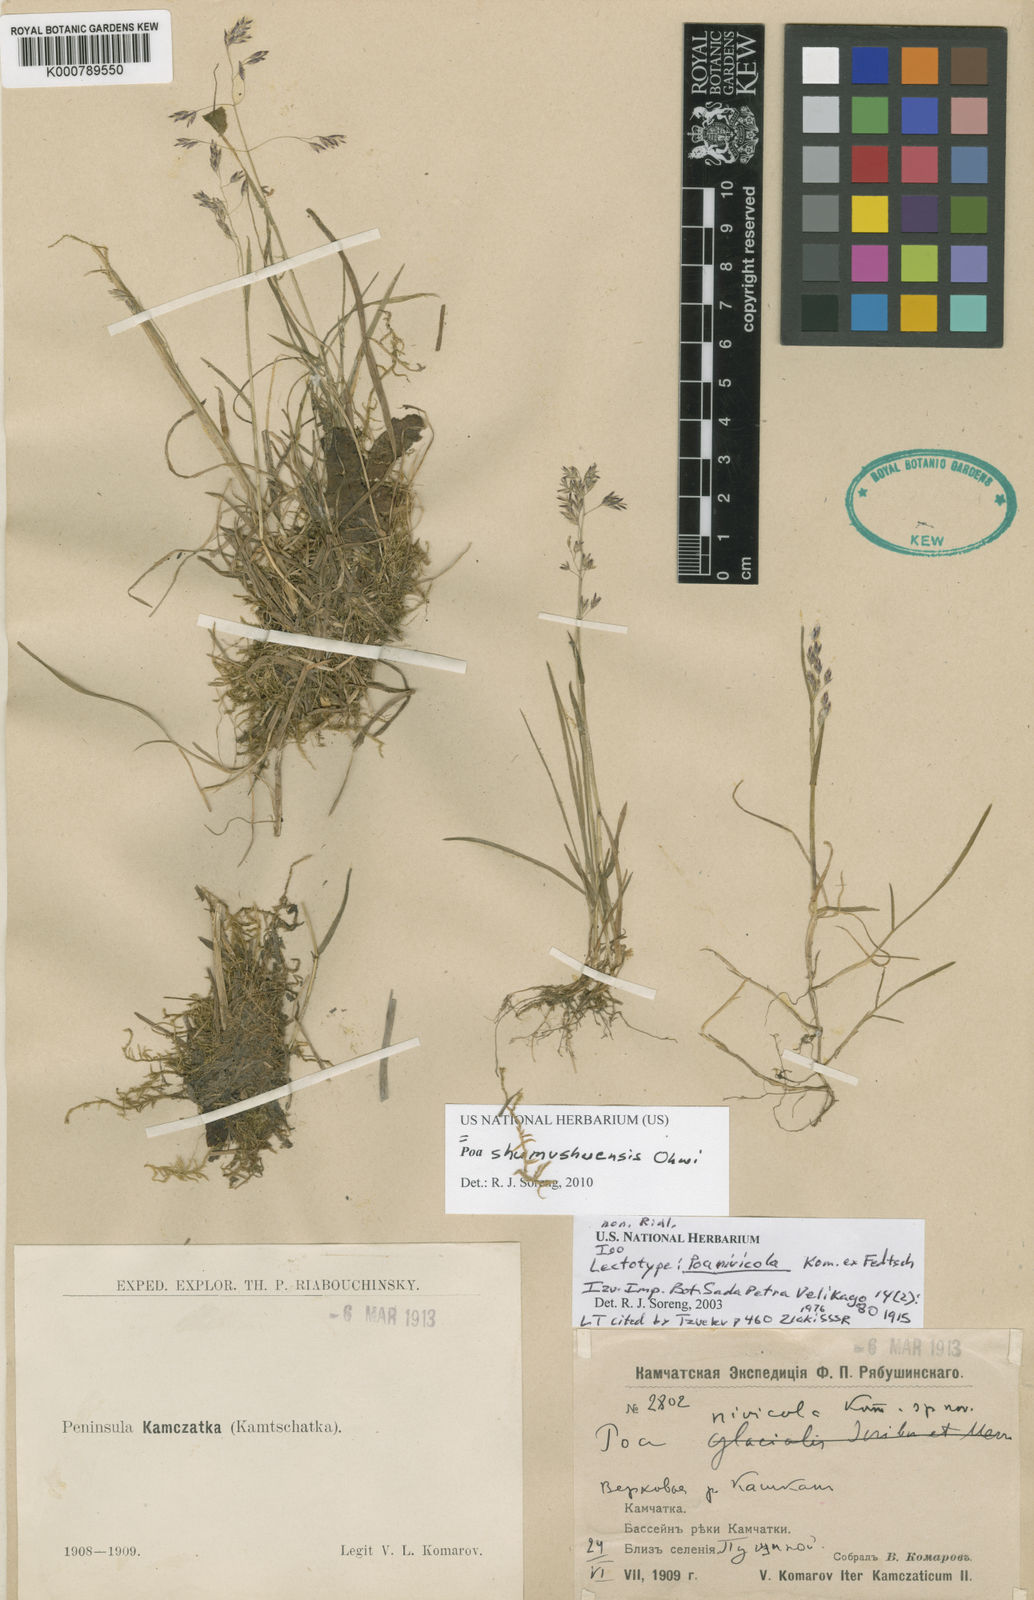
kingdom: Plantae
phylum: Tracheophyta
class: Liliopsida
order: Poales
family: Poaceae
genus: Poa
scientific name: Poa shumushuensis
